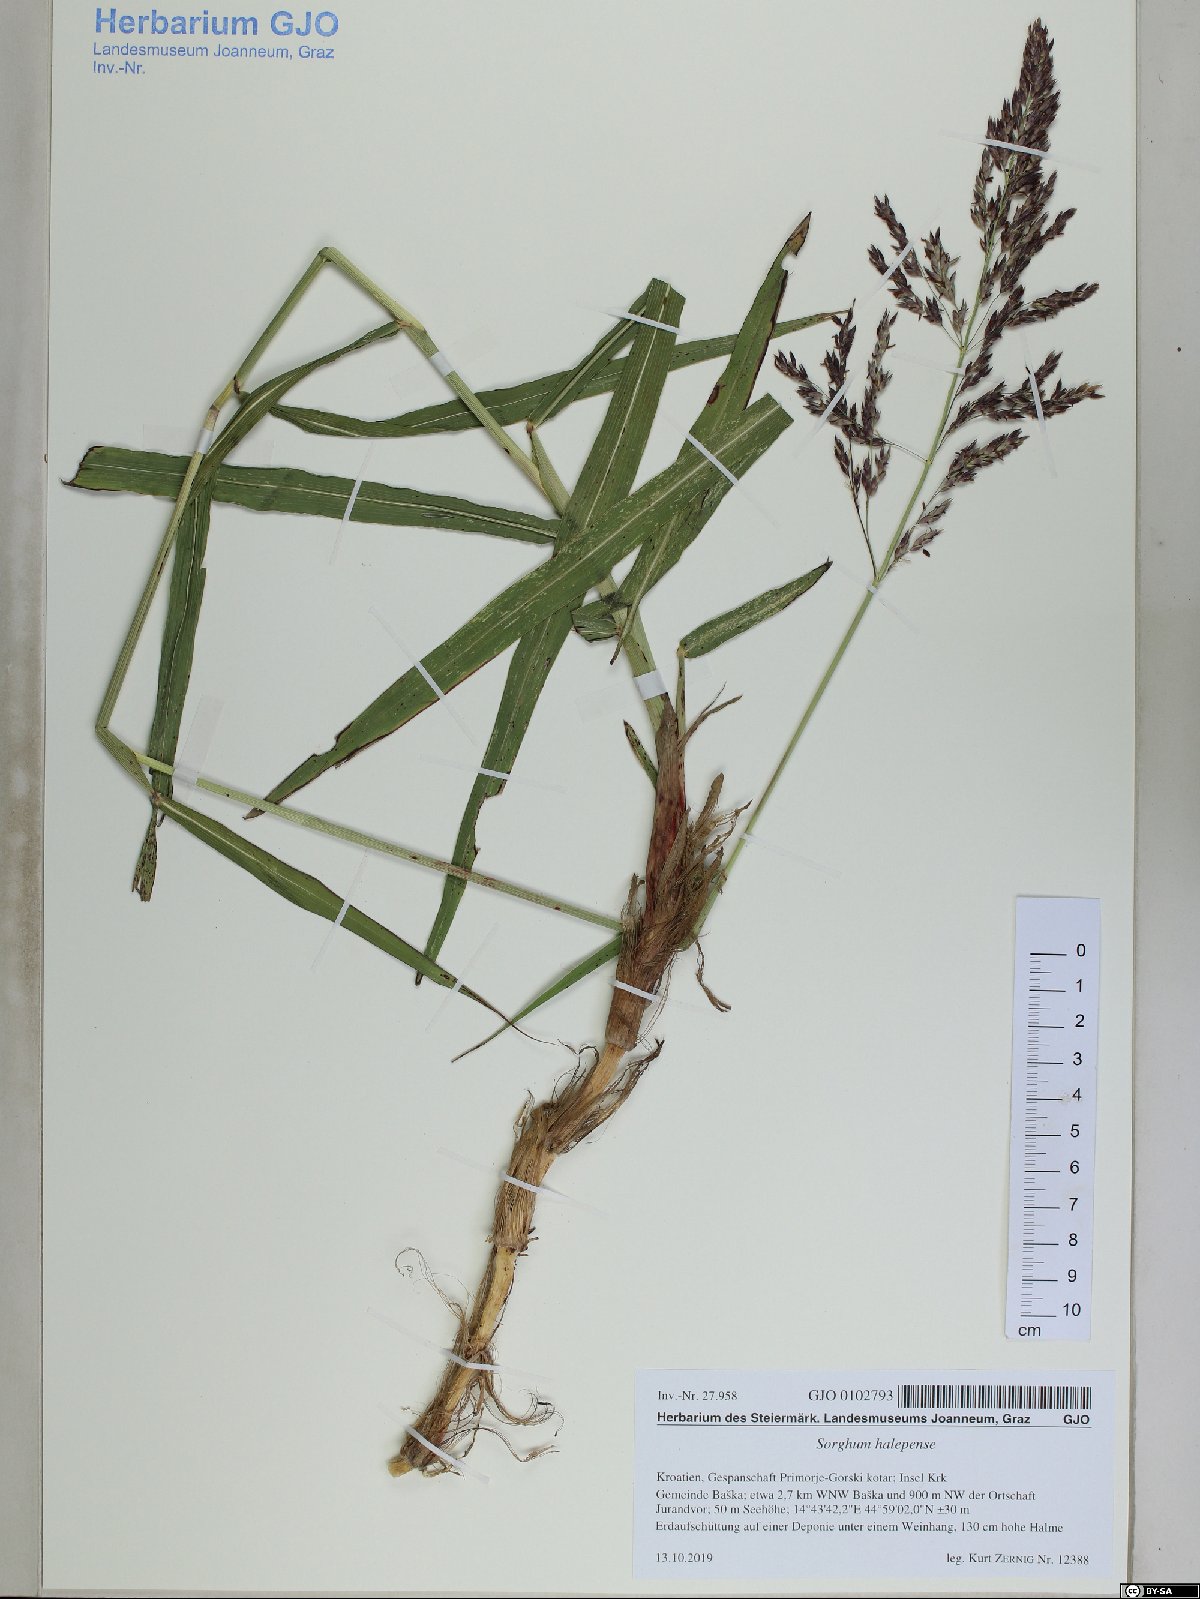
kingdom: Plantae
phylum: Tracheophyta
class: Liliopsida
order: Poales
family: Poaceae
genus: Sorghum
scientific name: Sorghum halepense
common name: Johnson-grass
